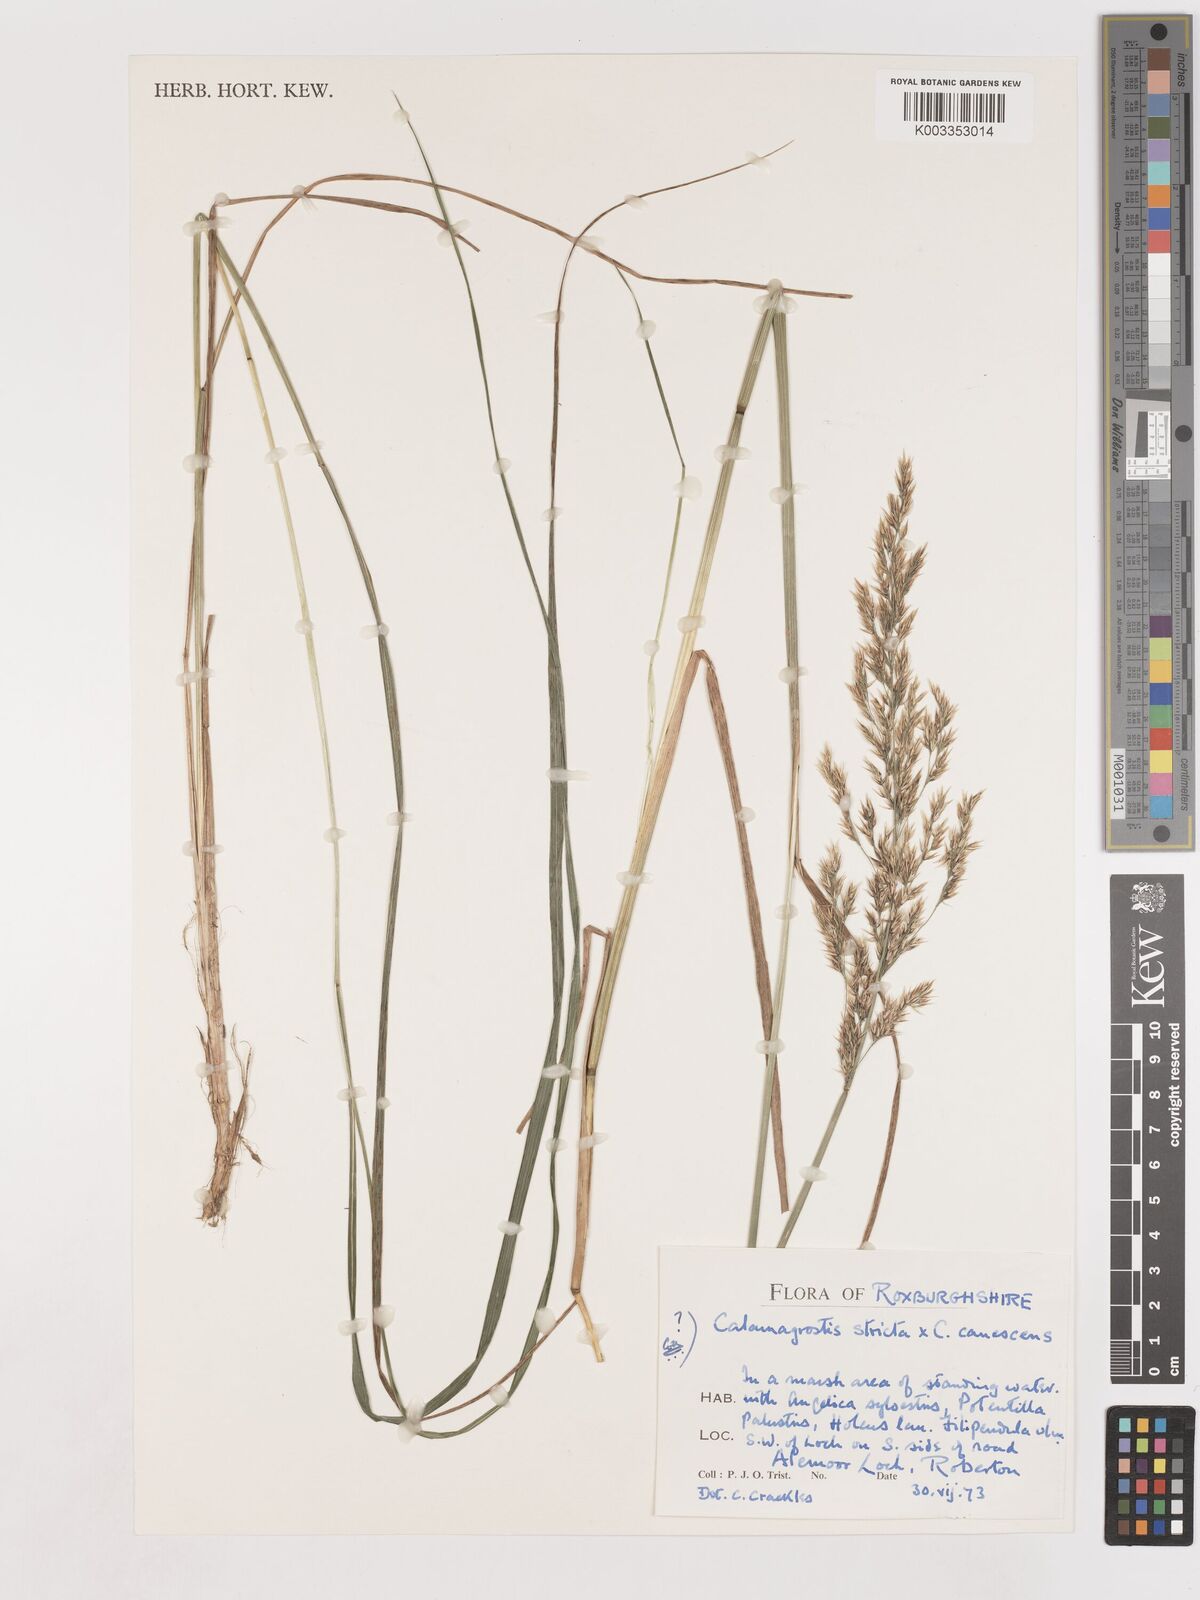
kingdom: Plantae
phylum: Tracheophyta
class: Liliopsida
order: Poales
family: Poaceae
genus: Calamagrostis
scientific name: Calamagrostis canescens
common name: Purple small-reed
